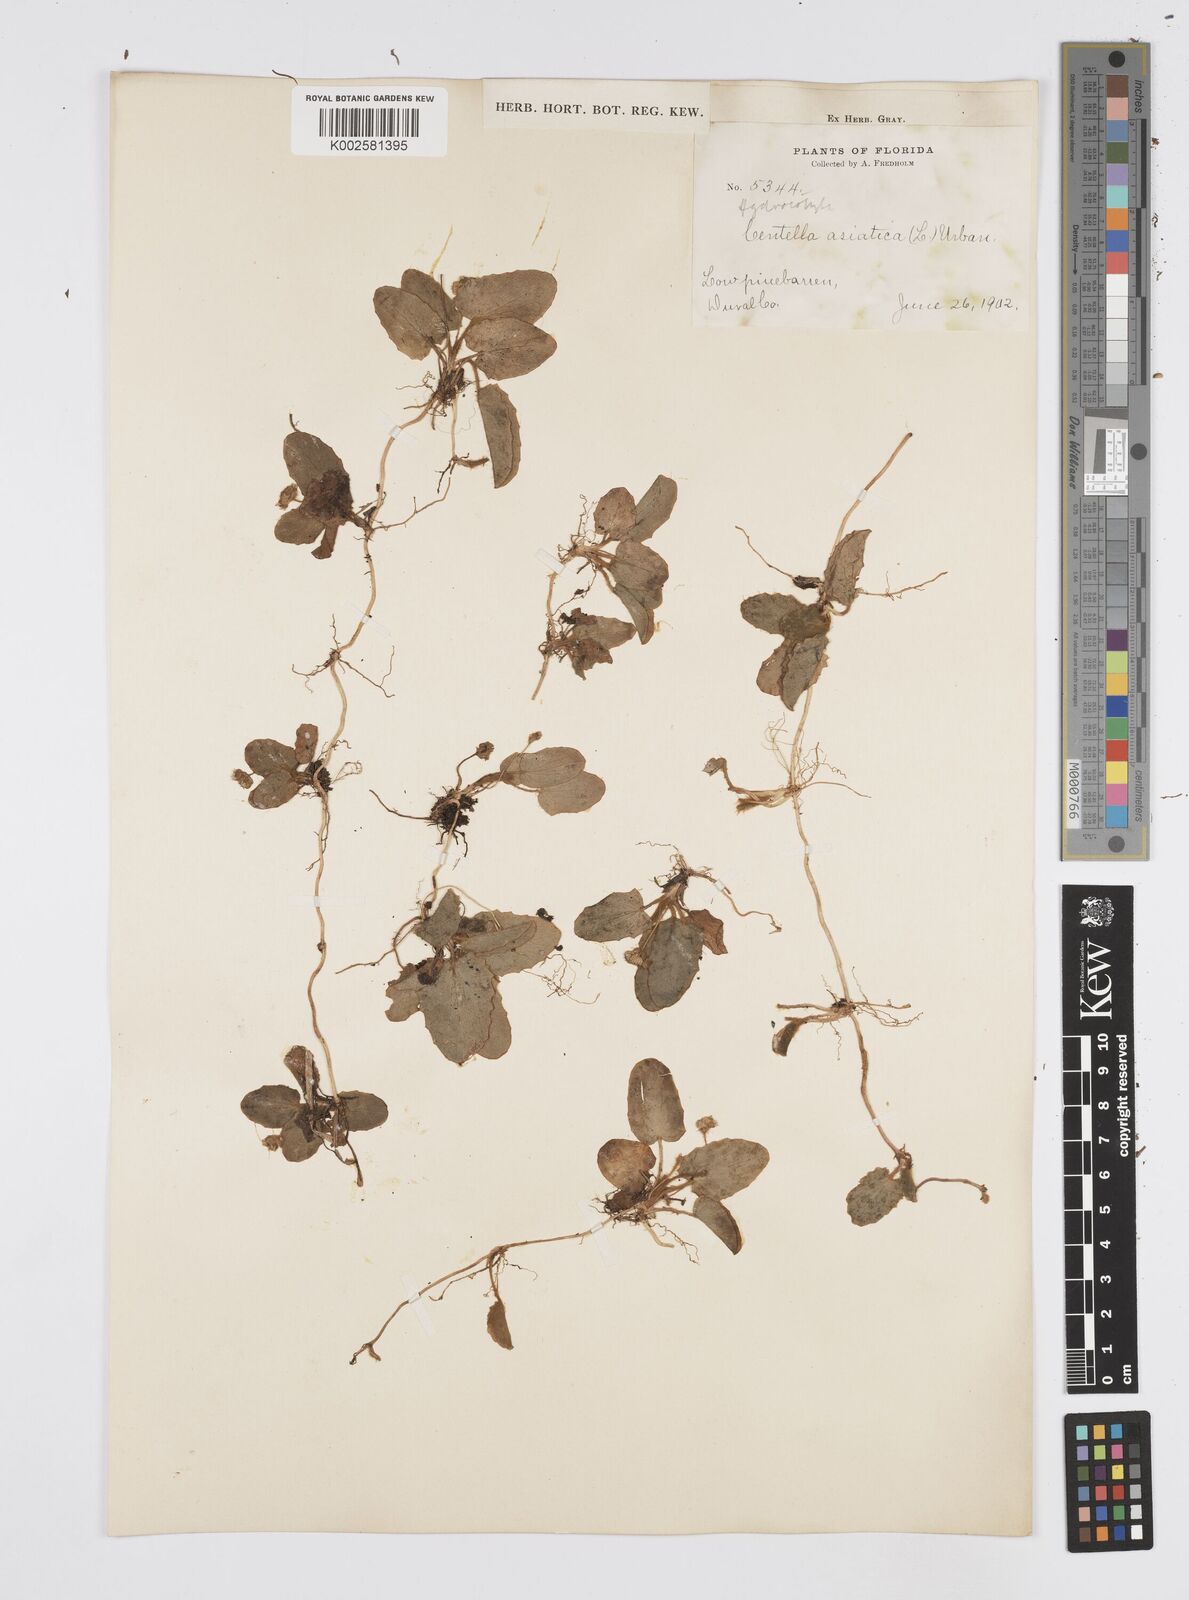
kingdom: Plantae
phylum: Tracheophyta
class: Magnoliopsida
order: Apiales
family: Apiaceae
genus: Centella
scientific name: Centella erecta
